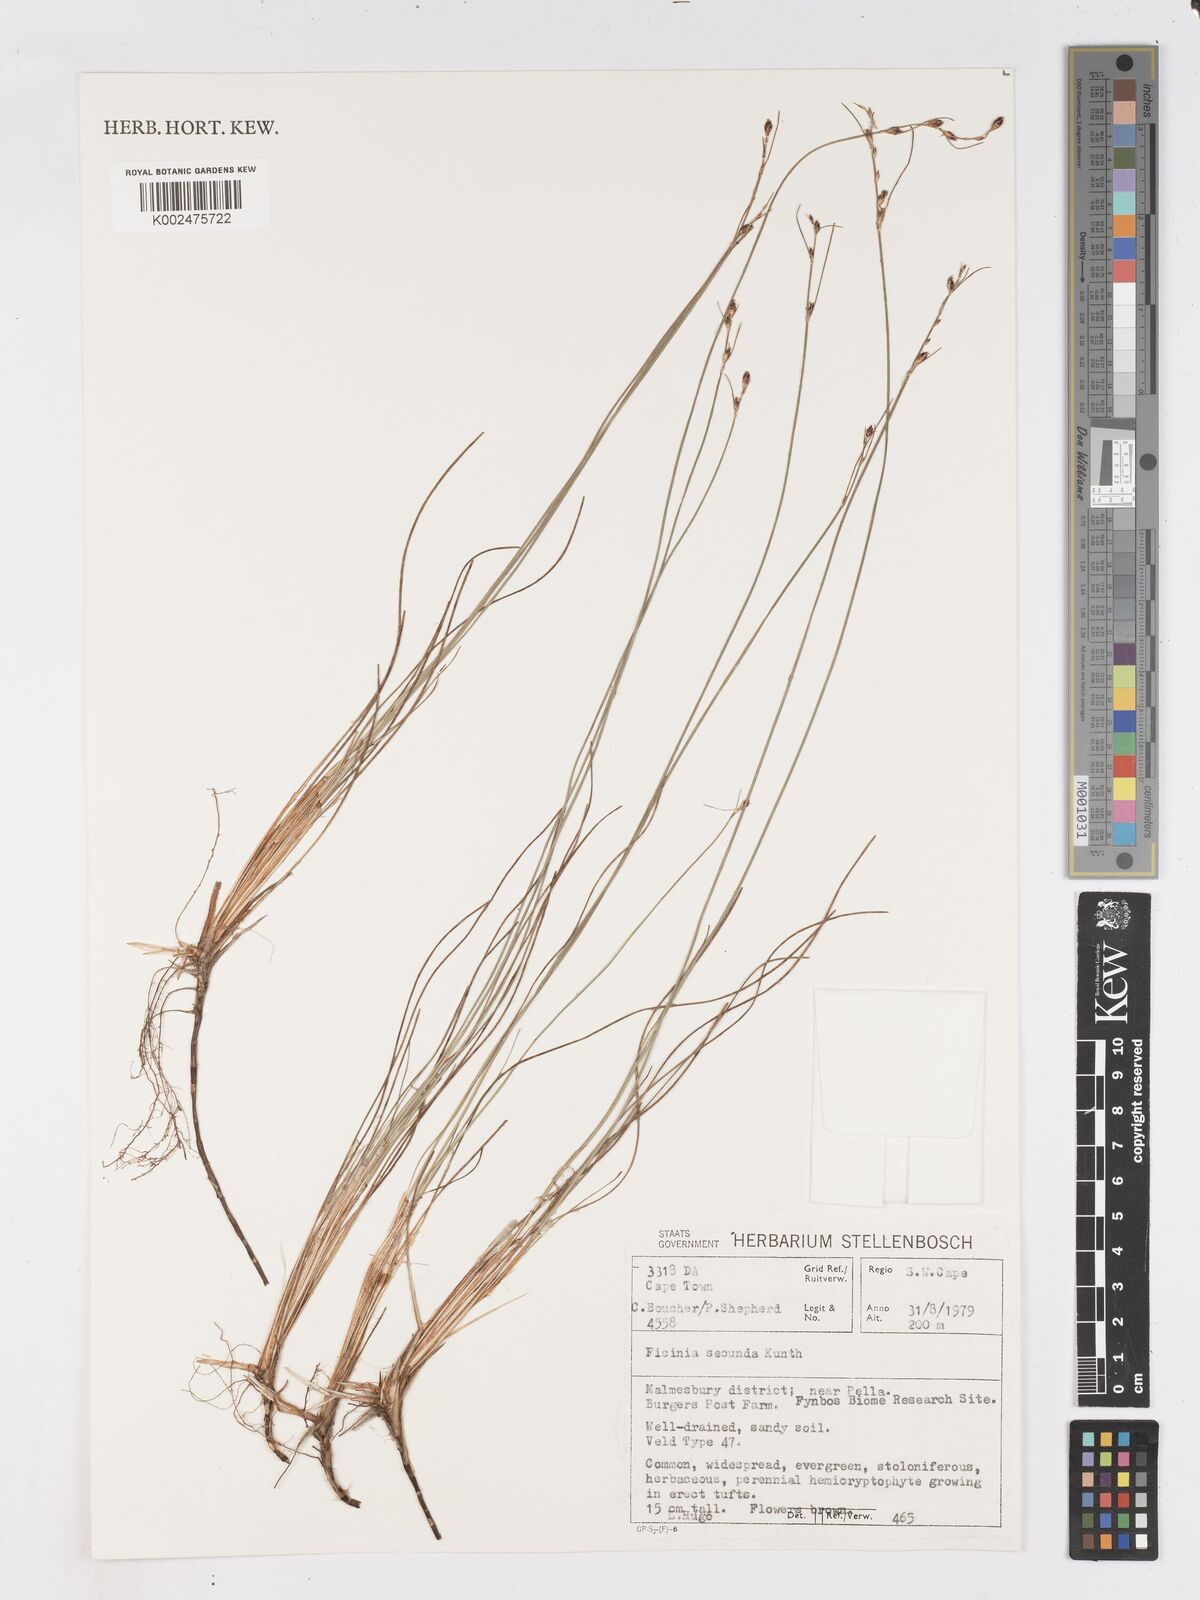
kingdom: Plantae
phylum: Tracheophyta
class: Liliopsida
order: Poales
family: Cyperaceae
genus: Ficinia
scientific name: Ficinia secunda
